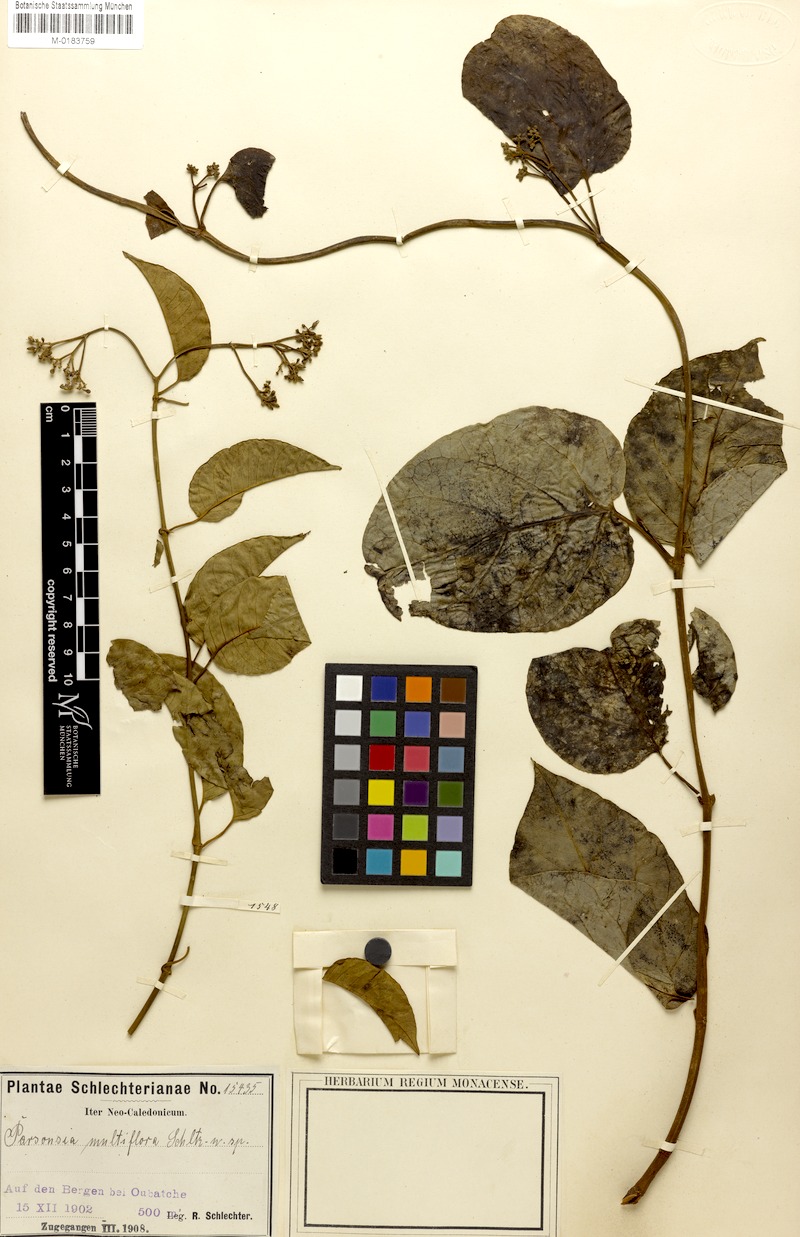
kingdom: Plantae
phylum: Tracheophyta
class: Magnoliopsida
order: Gentianales
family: Apocynaceae
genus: Parsonsia
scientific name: Parsonsia affinis
